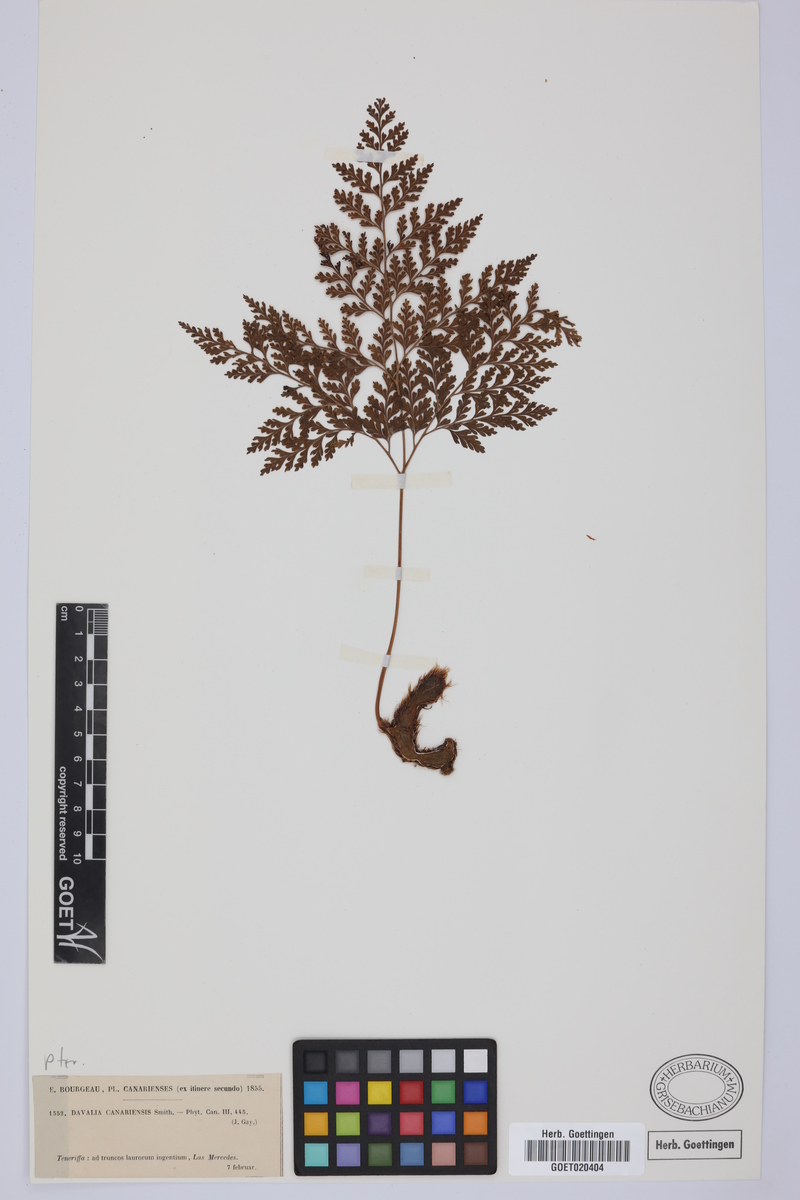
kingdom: Plantae
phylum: Tracheophyta
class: Polypodiopsida
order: Polypodiales
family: Davalliaceae
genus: Davallia
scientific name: Davallia canariensis
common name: Hare's-foot fern
